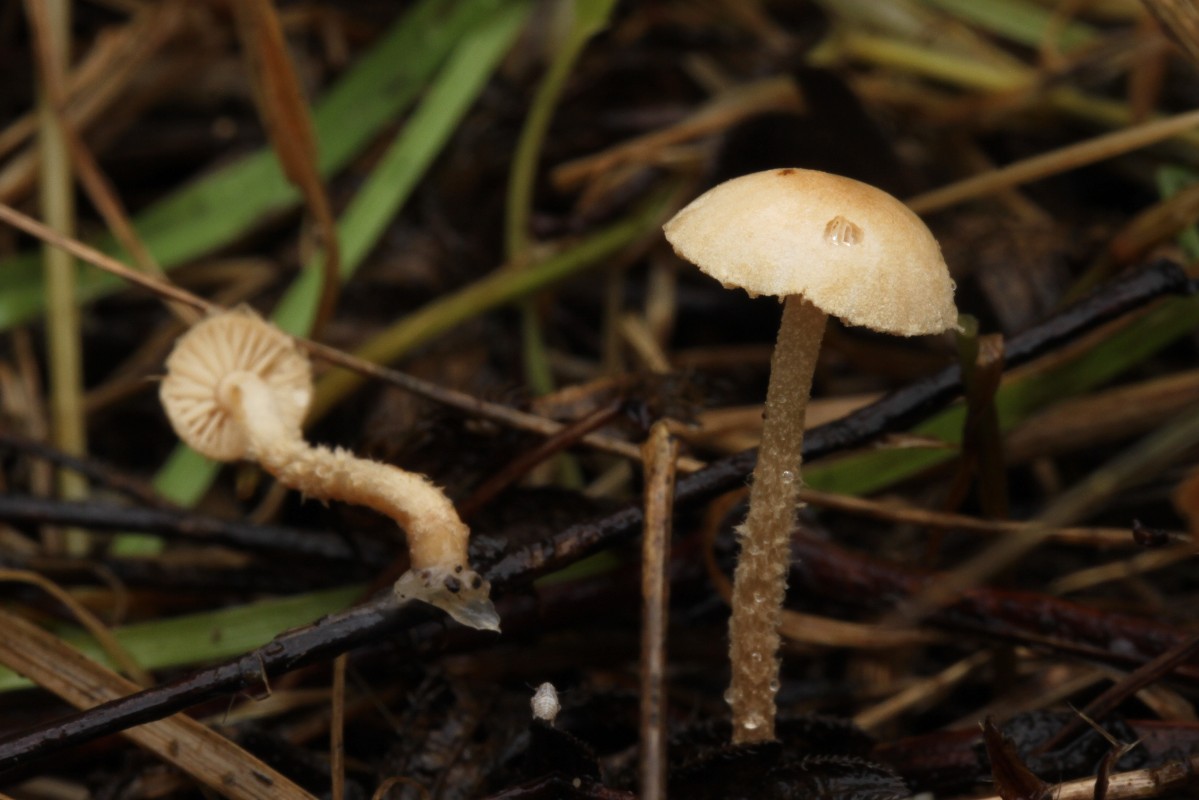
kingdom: Fungi
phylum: Basidiomycota
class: Agaricomycetes
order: Agaricales
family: Tubariaceae
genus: Flammulaster
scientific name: Flammulaster carpophilus
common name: blegrosa grynskælhat
